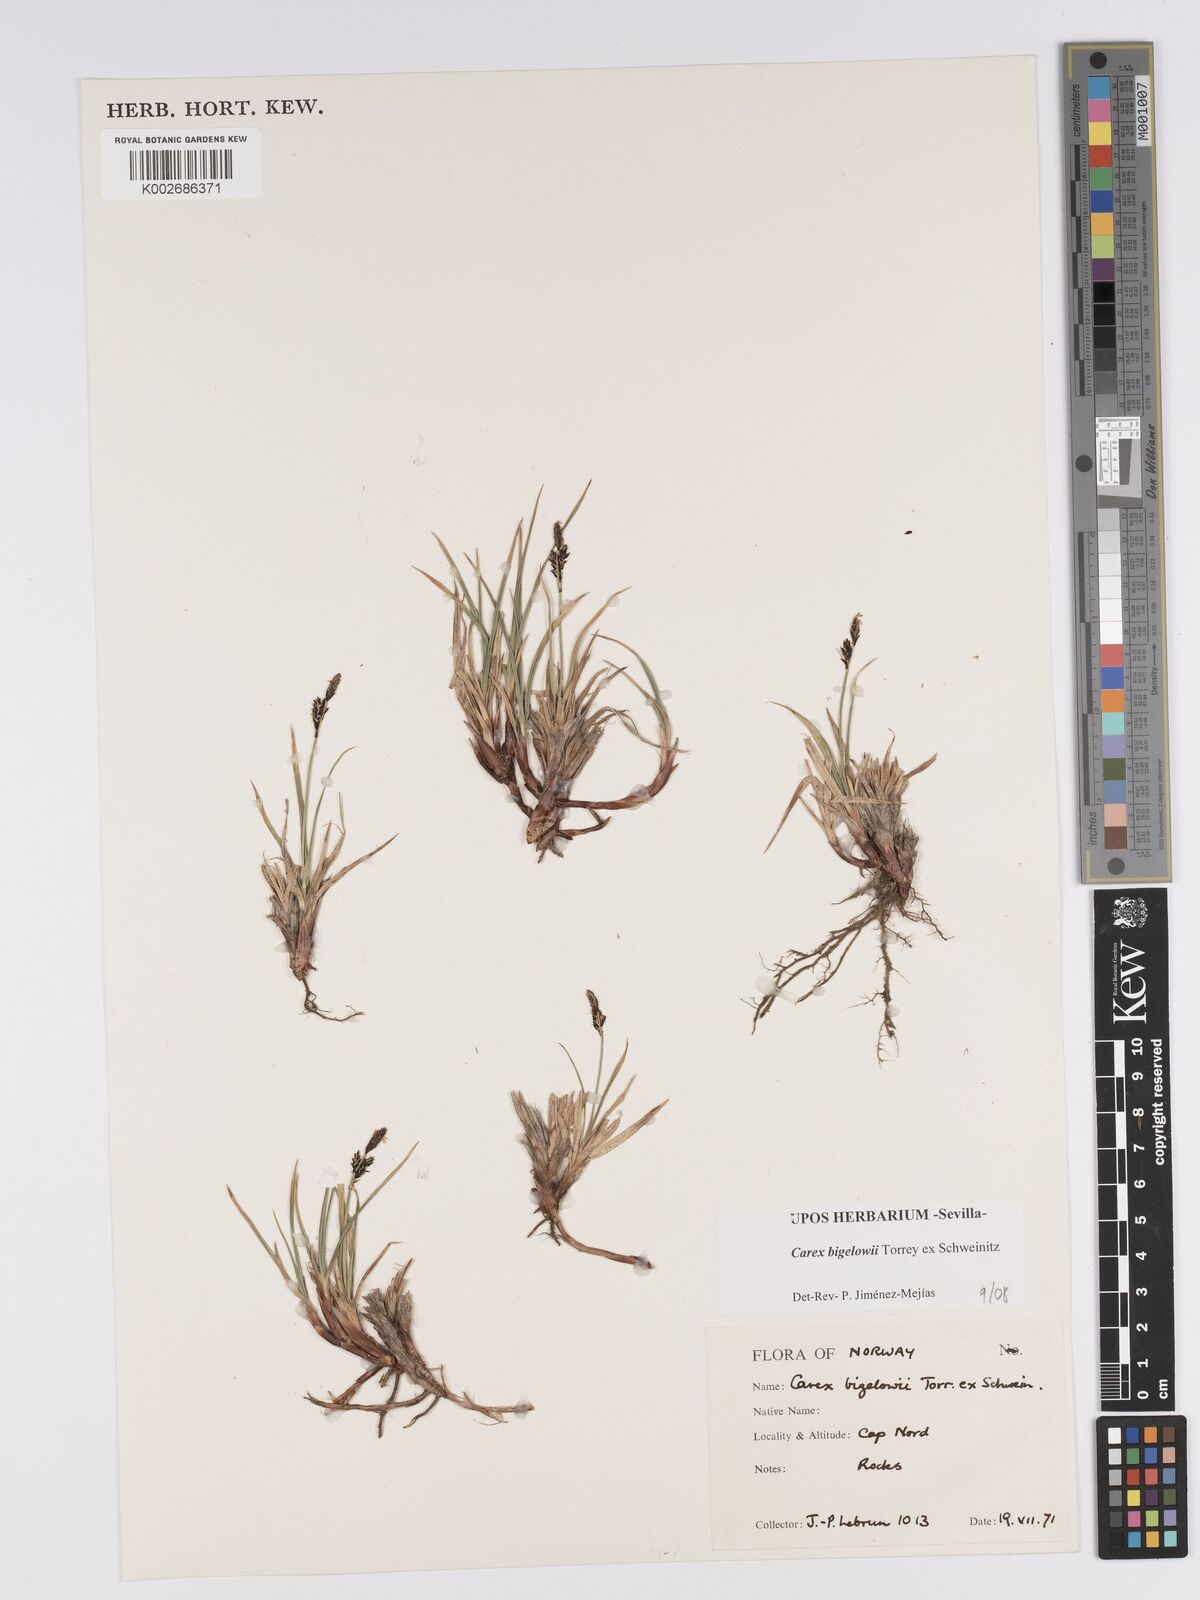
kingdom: Plantae
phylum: Tracheophyta
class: Liliopsida
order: Poales
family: Cyperaceae
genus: Carex
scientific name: Carex bigelowii
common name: Stiff sedge
